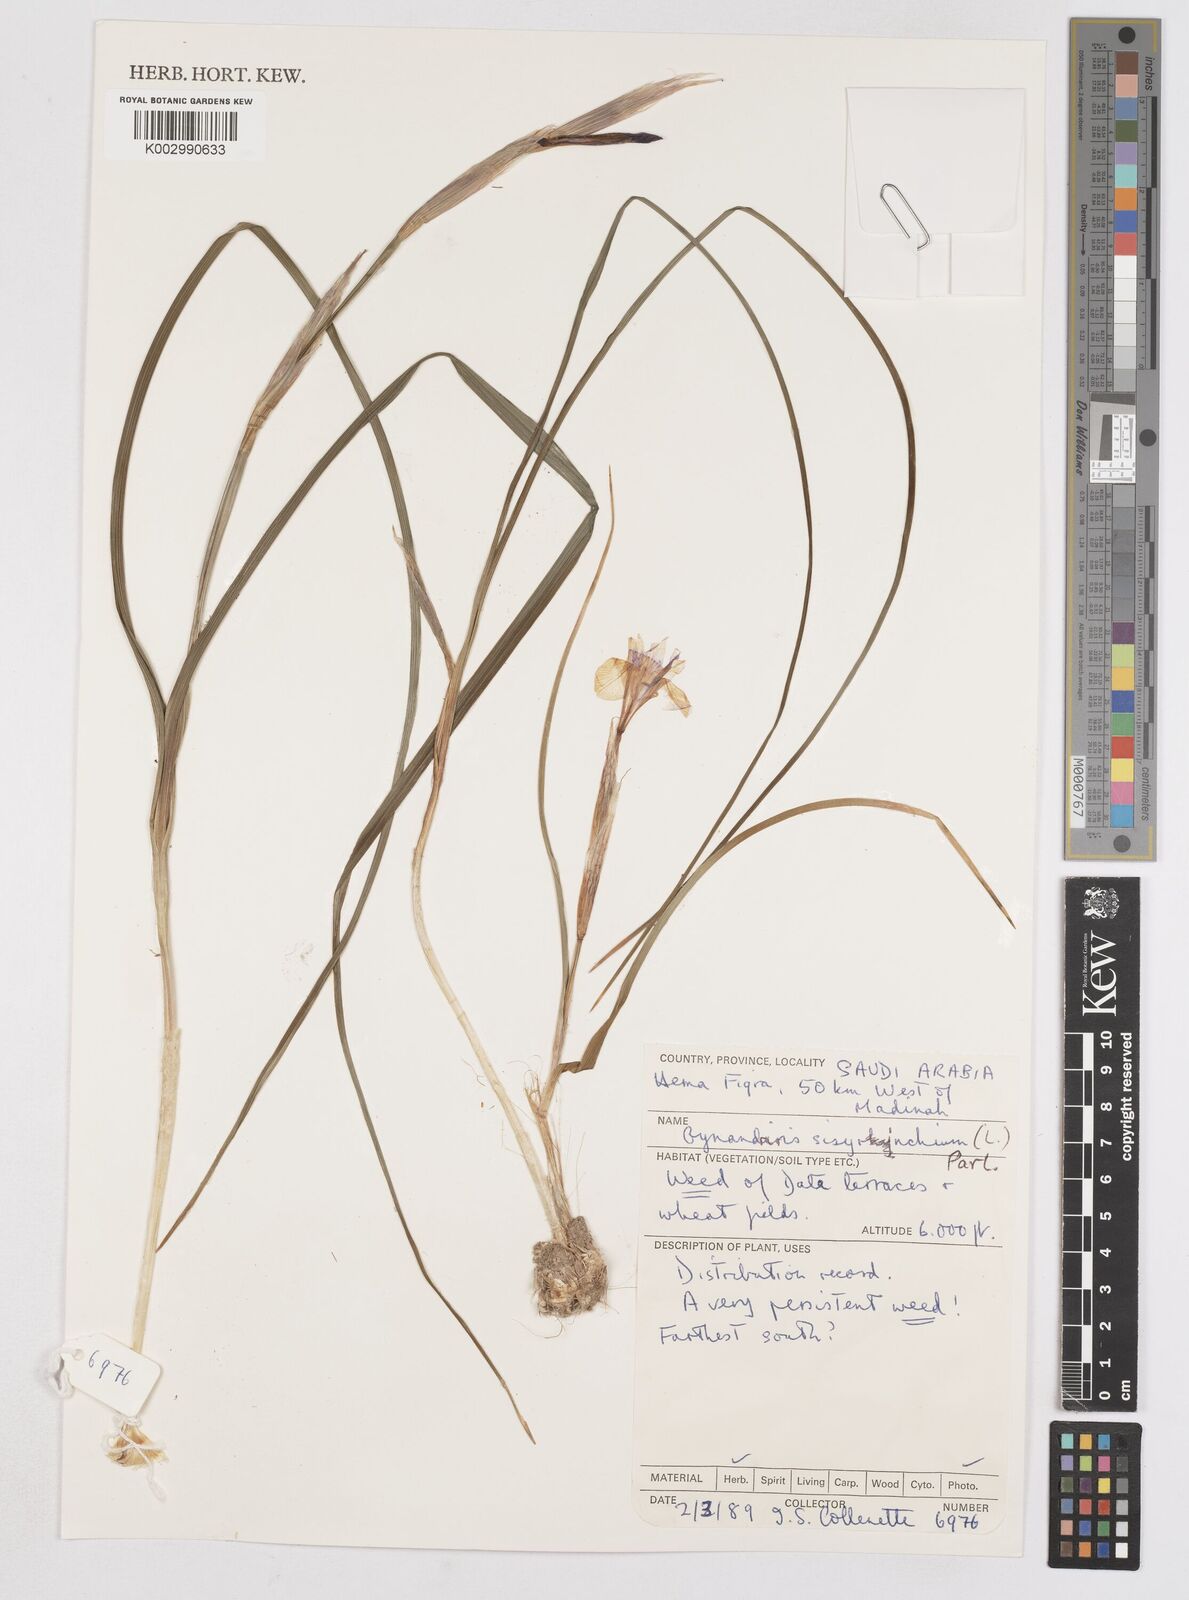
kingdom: Plantae
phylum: Tracheophyta
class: Liliopsida
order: Asparagales
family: Iridaceae
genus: Moraea
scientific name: Moraea sisyrinchium
